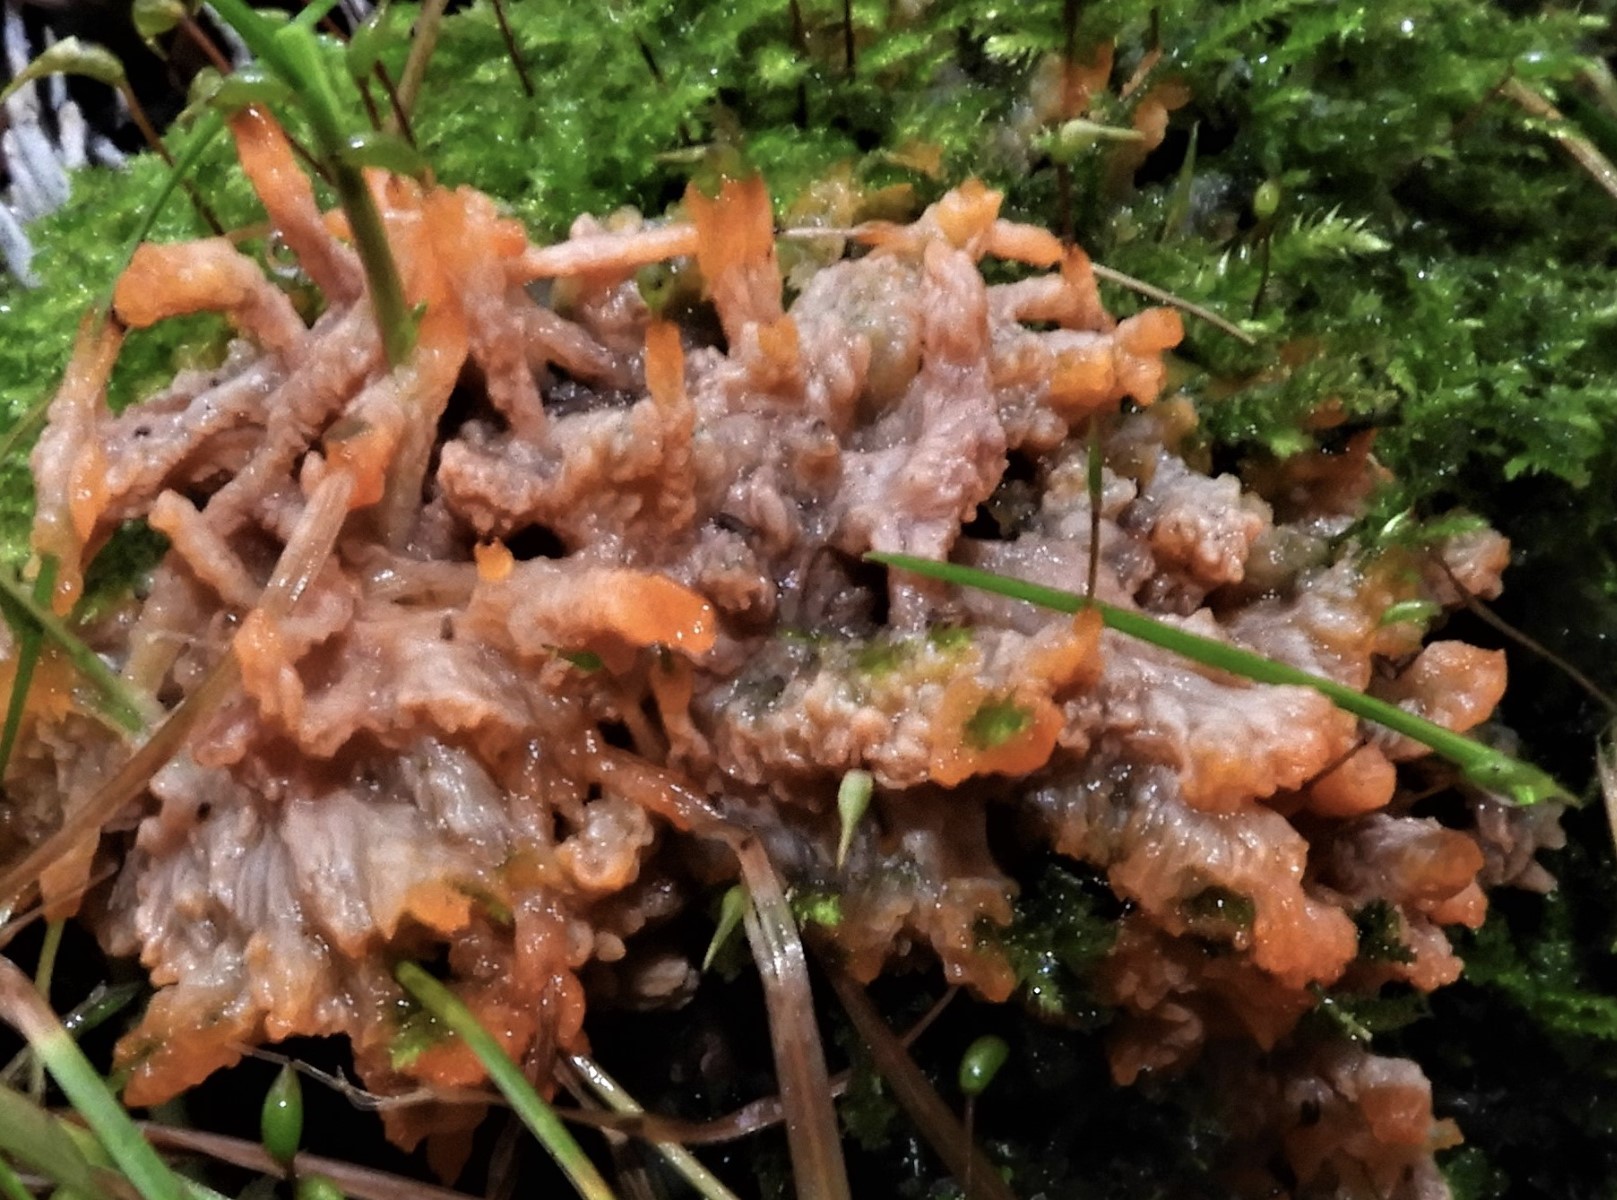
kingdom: Fungi
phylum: Basidiomycota
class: Agaricomycetes
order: Polyporales
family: Meruliaceae
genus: Phlebia
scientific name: Phlebia radiata
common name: stråle-åresvamp
